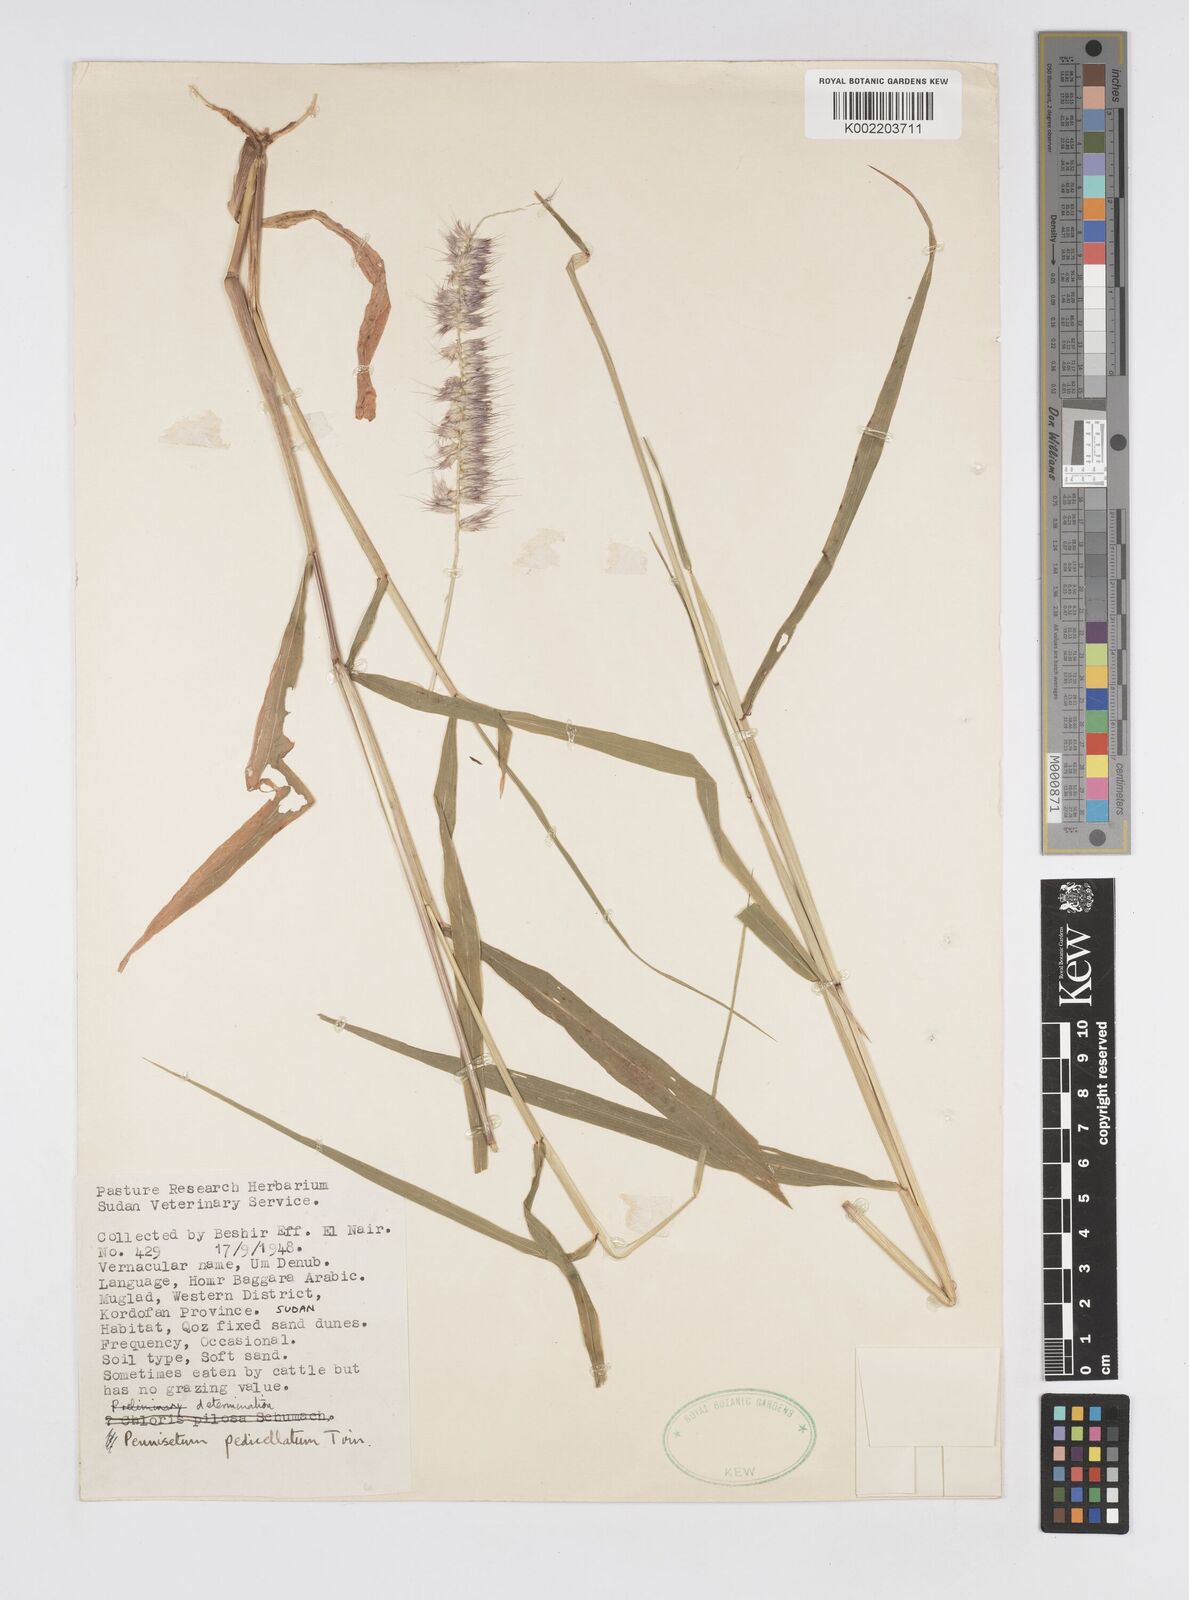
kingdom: Plantae
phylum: Tracheophyta
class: Liliopsida
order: Poales
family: Poaceae
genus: Cenchrus
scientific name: Cenchrus pedicellatus
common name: Hairy fountain grass
